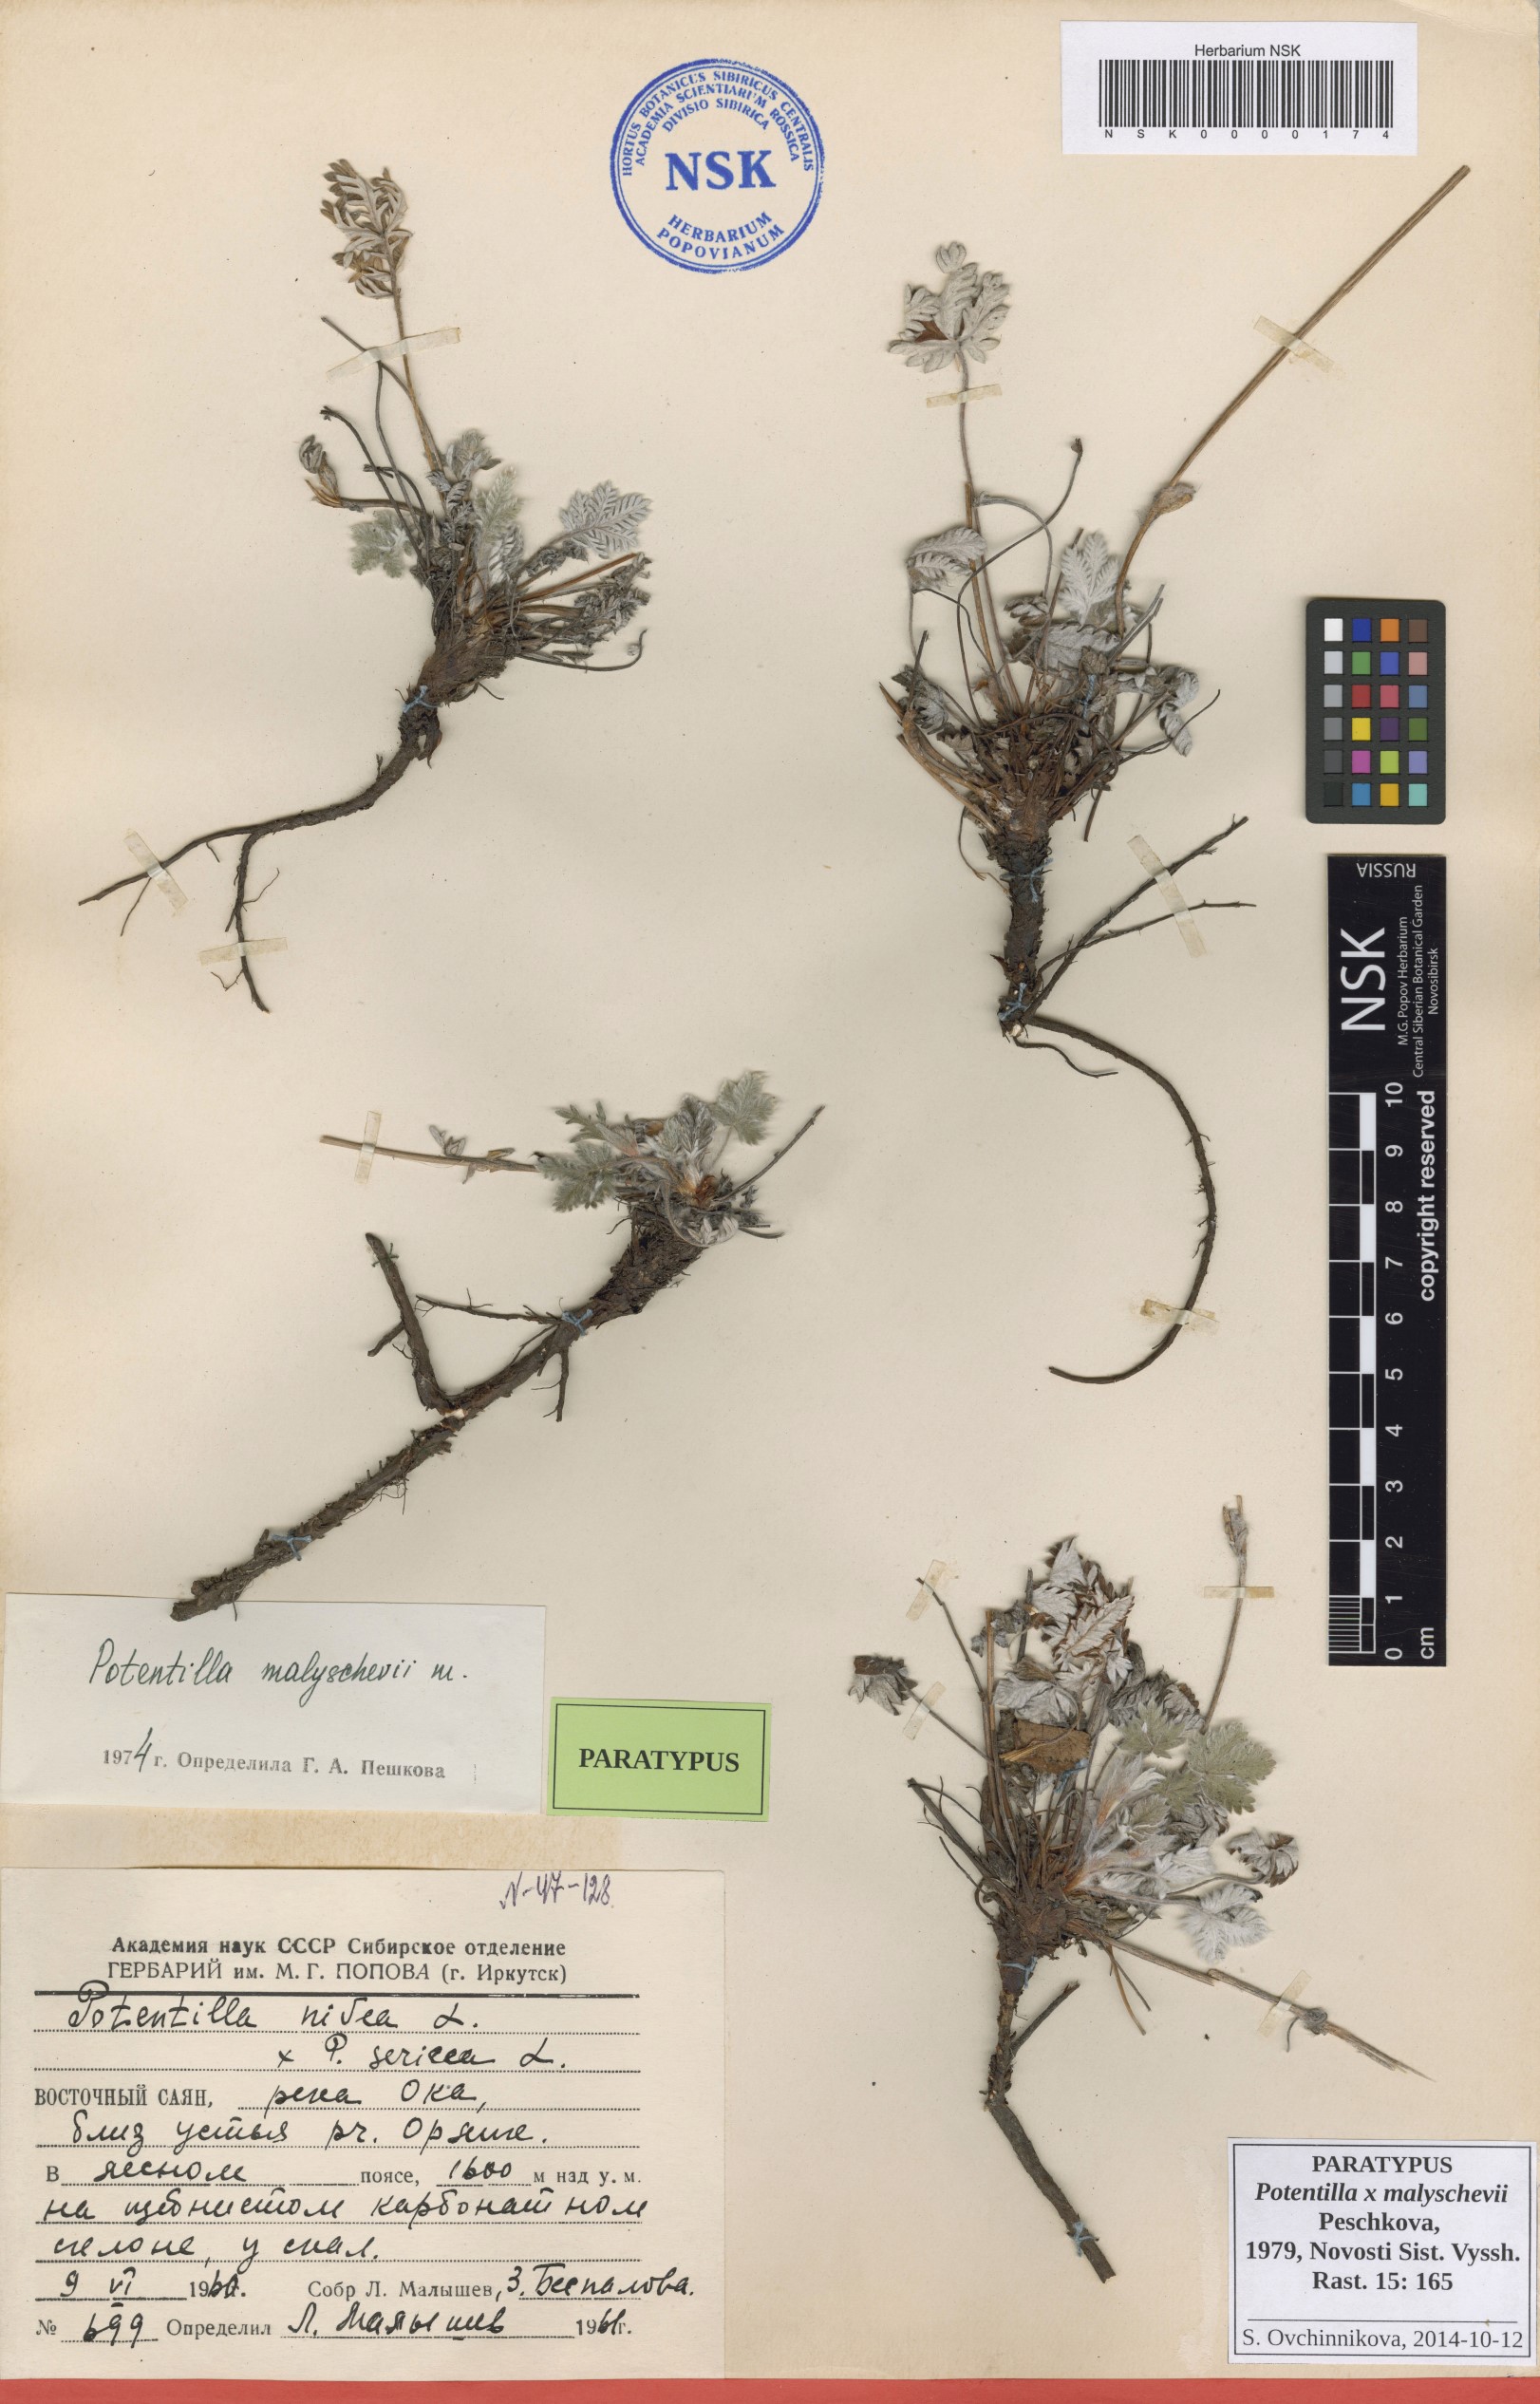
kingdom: Plantae
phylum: Tracheophyta
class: Magnoliopsida
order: Rosales
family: Rosaceae
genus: Potentilla
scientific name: Potentilla chionea
